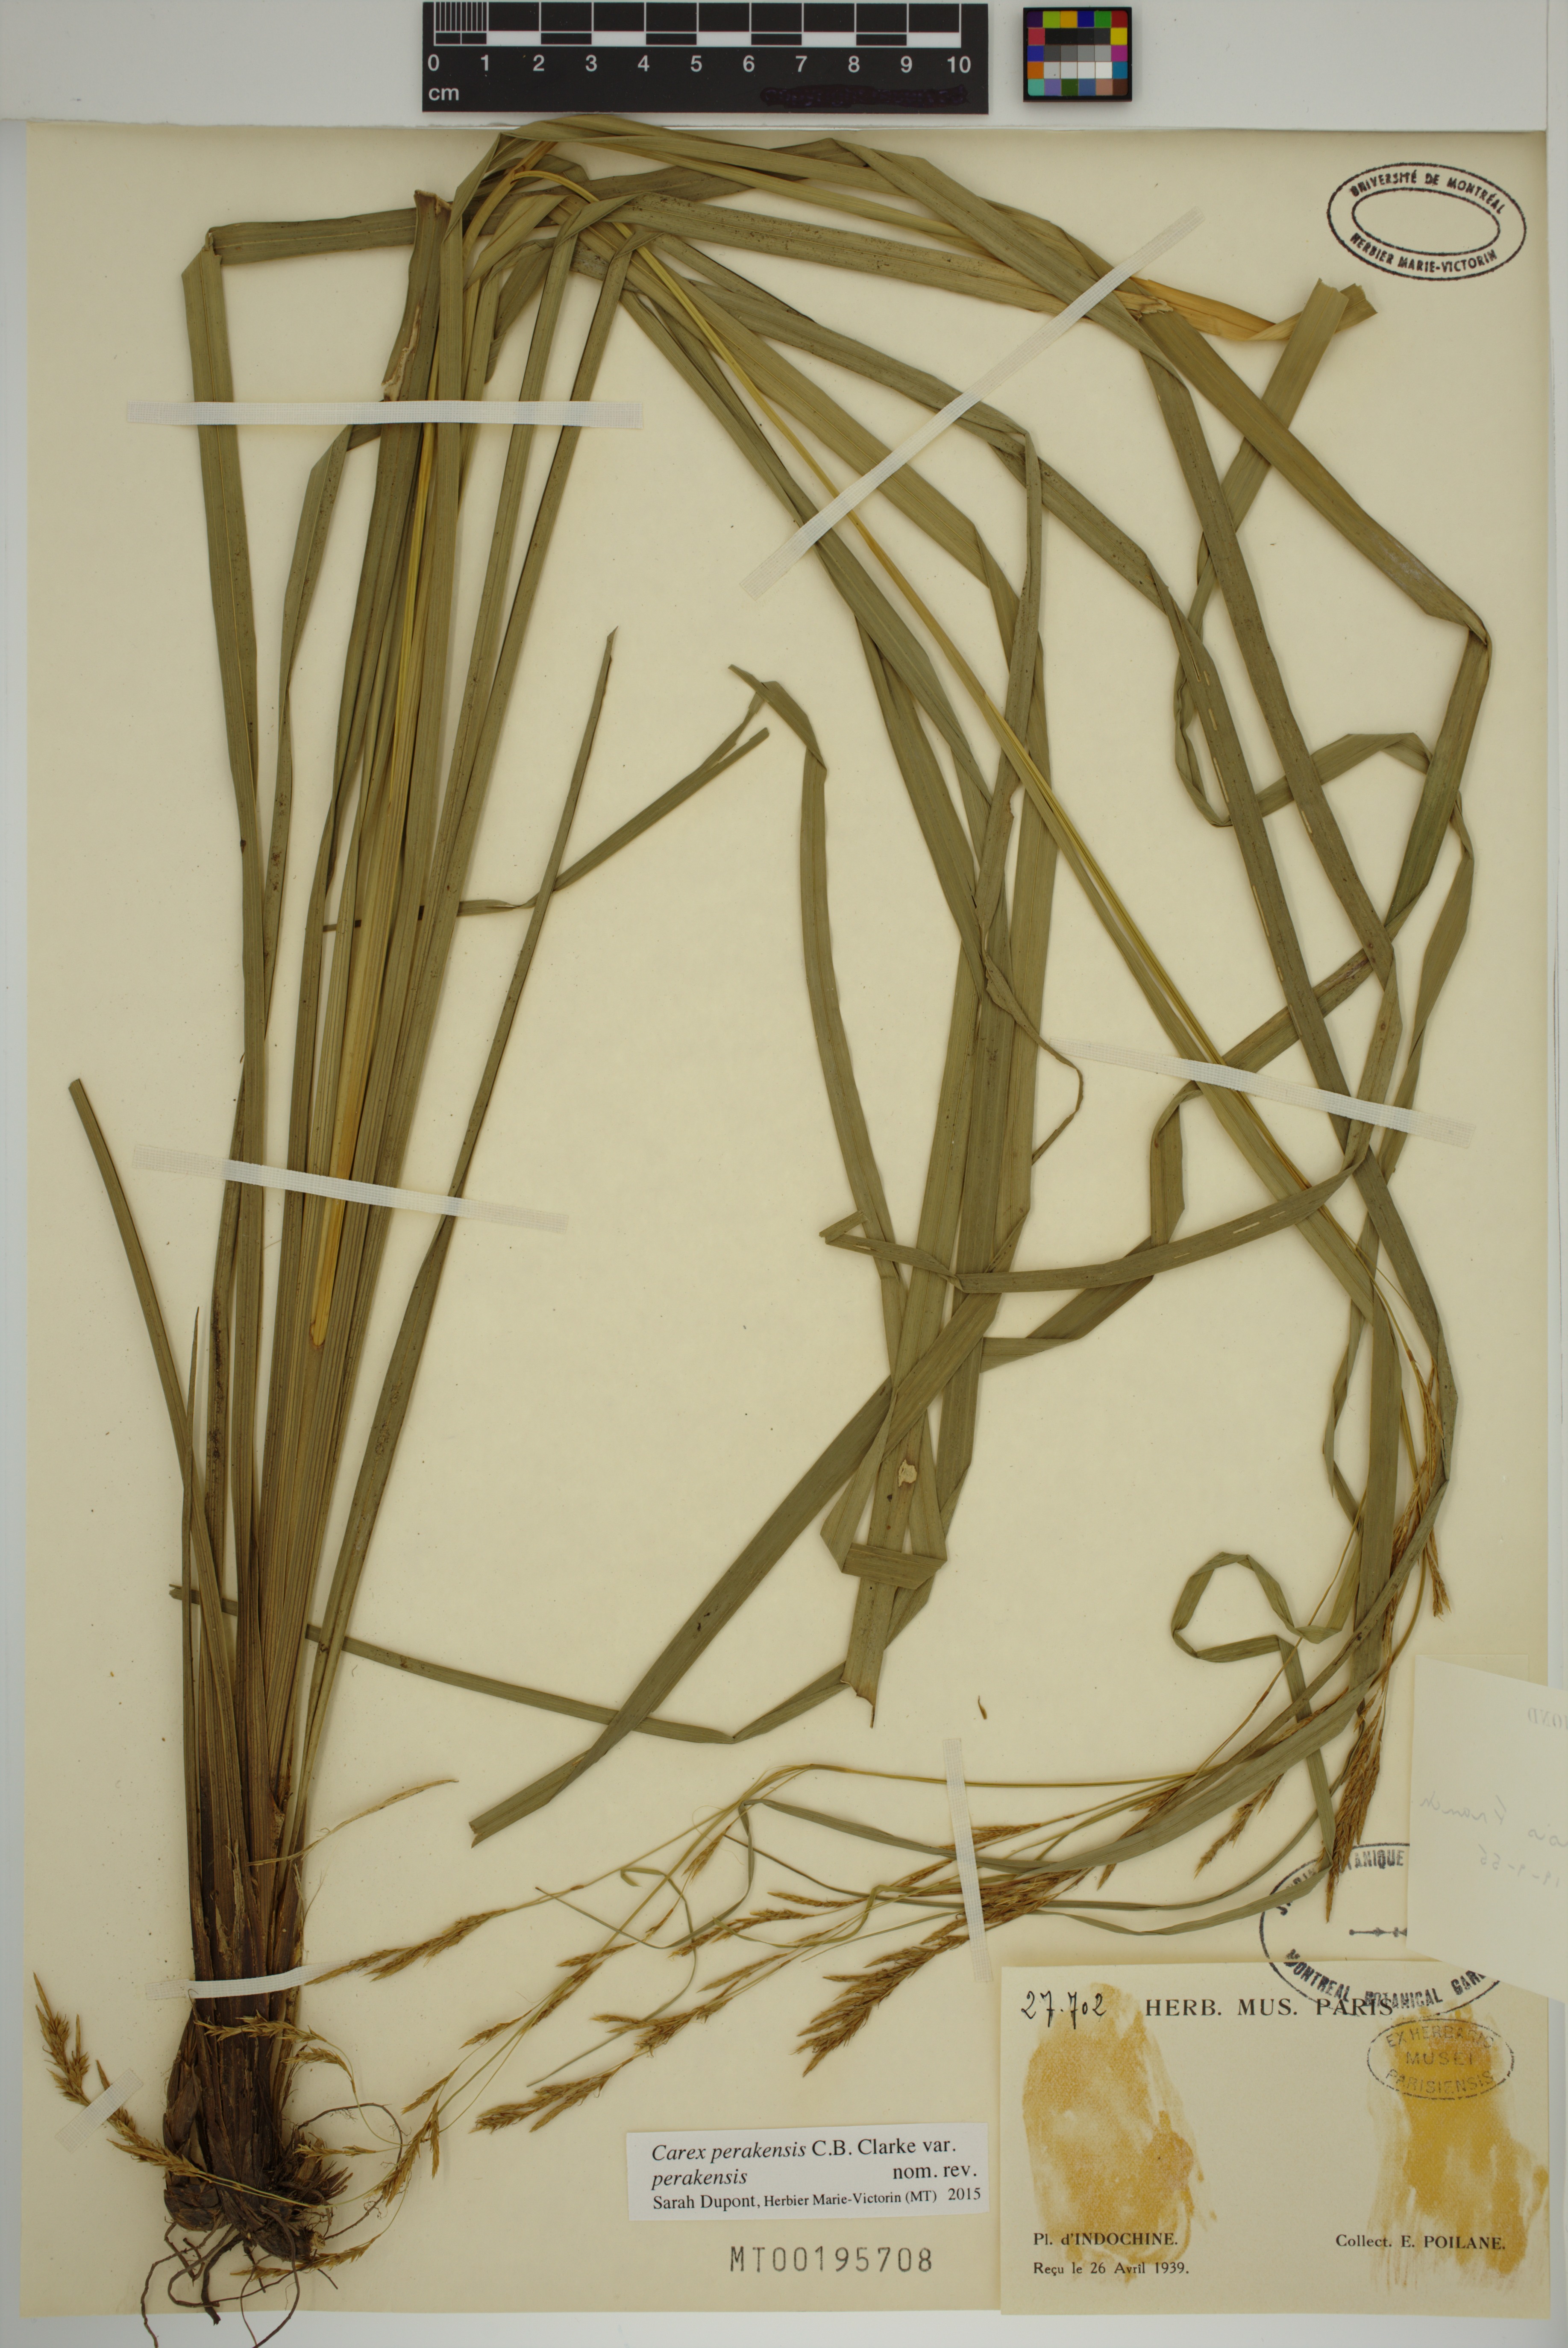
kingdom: Plantae
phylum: Tracheophyta
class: Liliopsida
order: Poales
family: Cyperaceae
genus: Carex
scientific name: Carex perakensis
